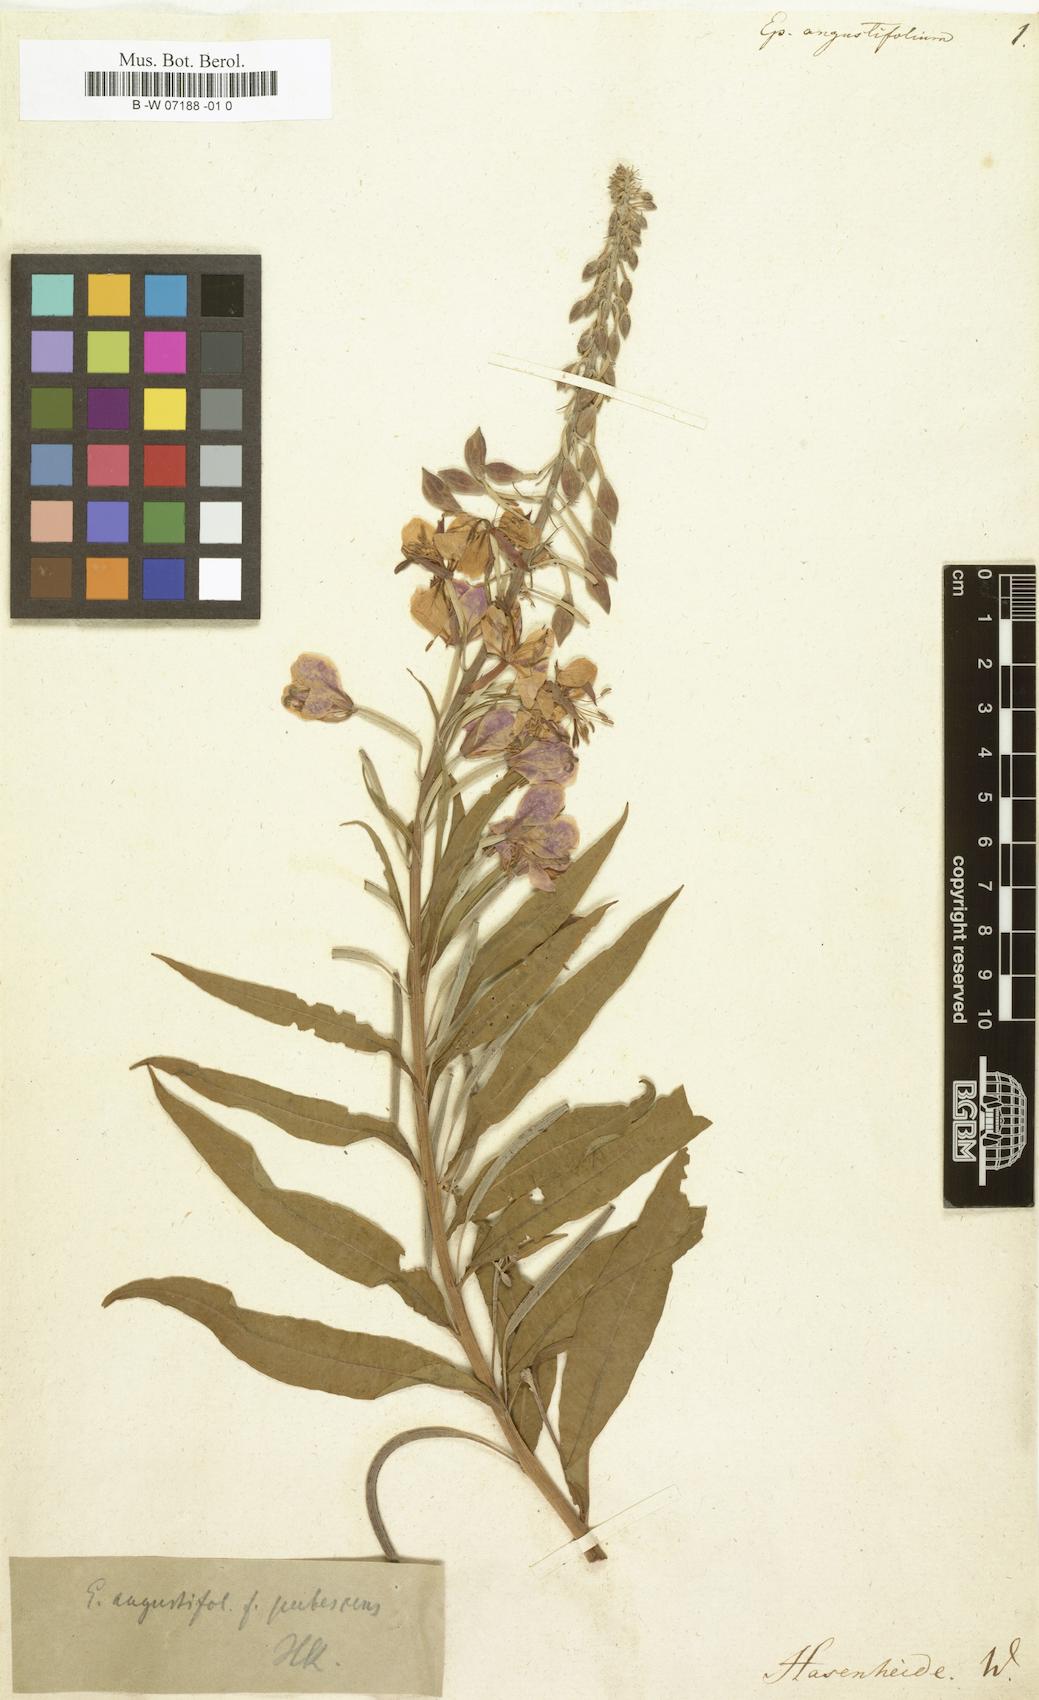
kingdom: Plantae
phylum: Tracheophyta
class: Magnoliopsida
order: Myrtales
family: Onagraceae
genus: Chamaenerion
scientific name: Chamaenerion angustifolium
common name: Fireweed
